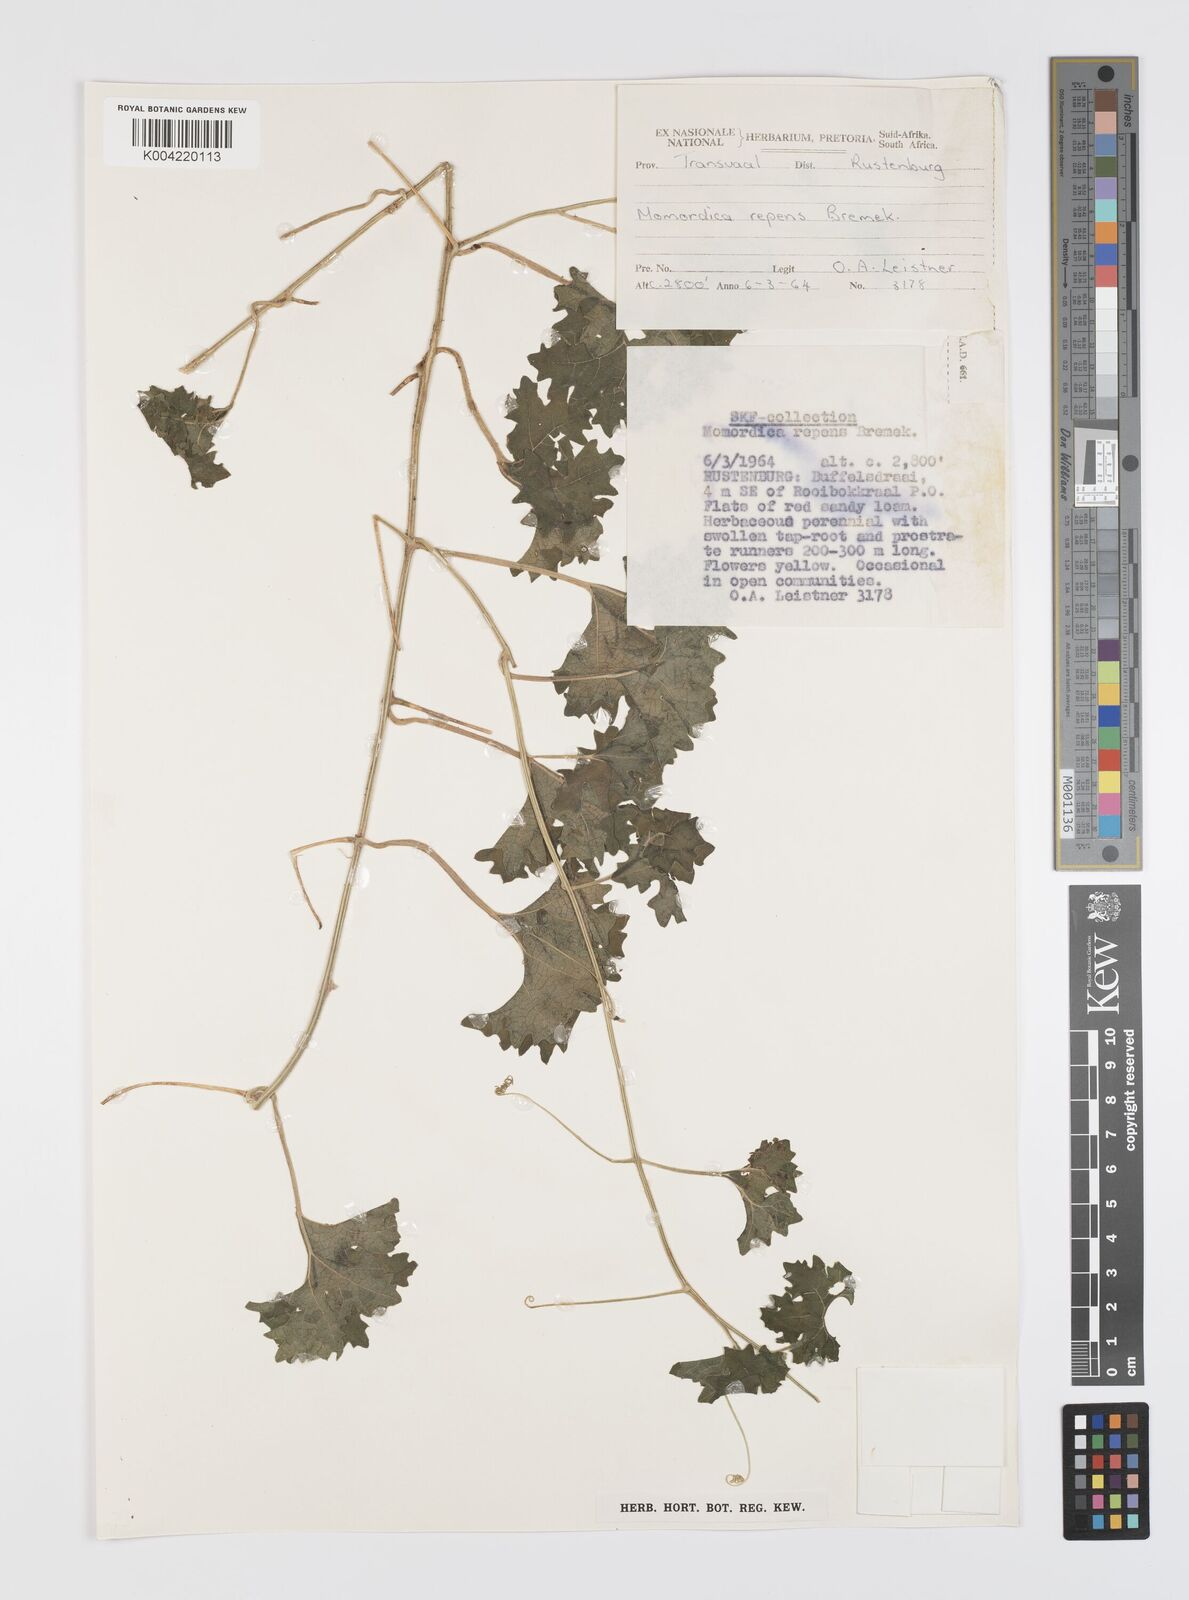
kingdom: Plantae
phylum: Tracheophyta
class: Magnoliopsida
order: Cucurbitales
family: Cucurbitaceae
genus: Momordica
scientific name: Momordica repens
